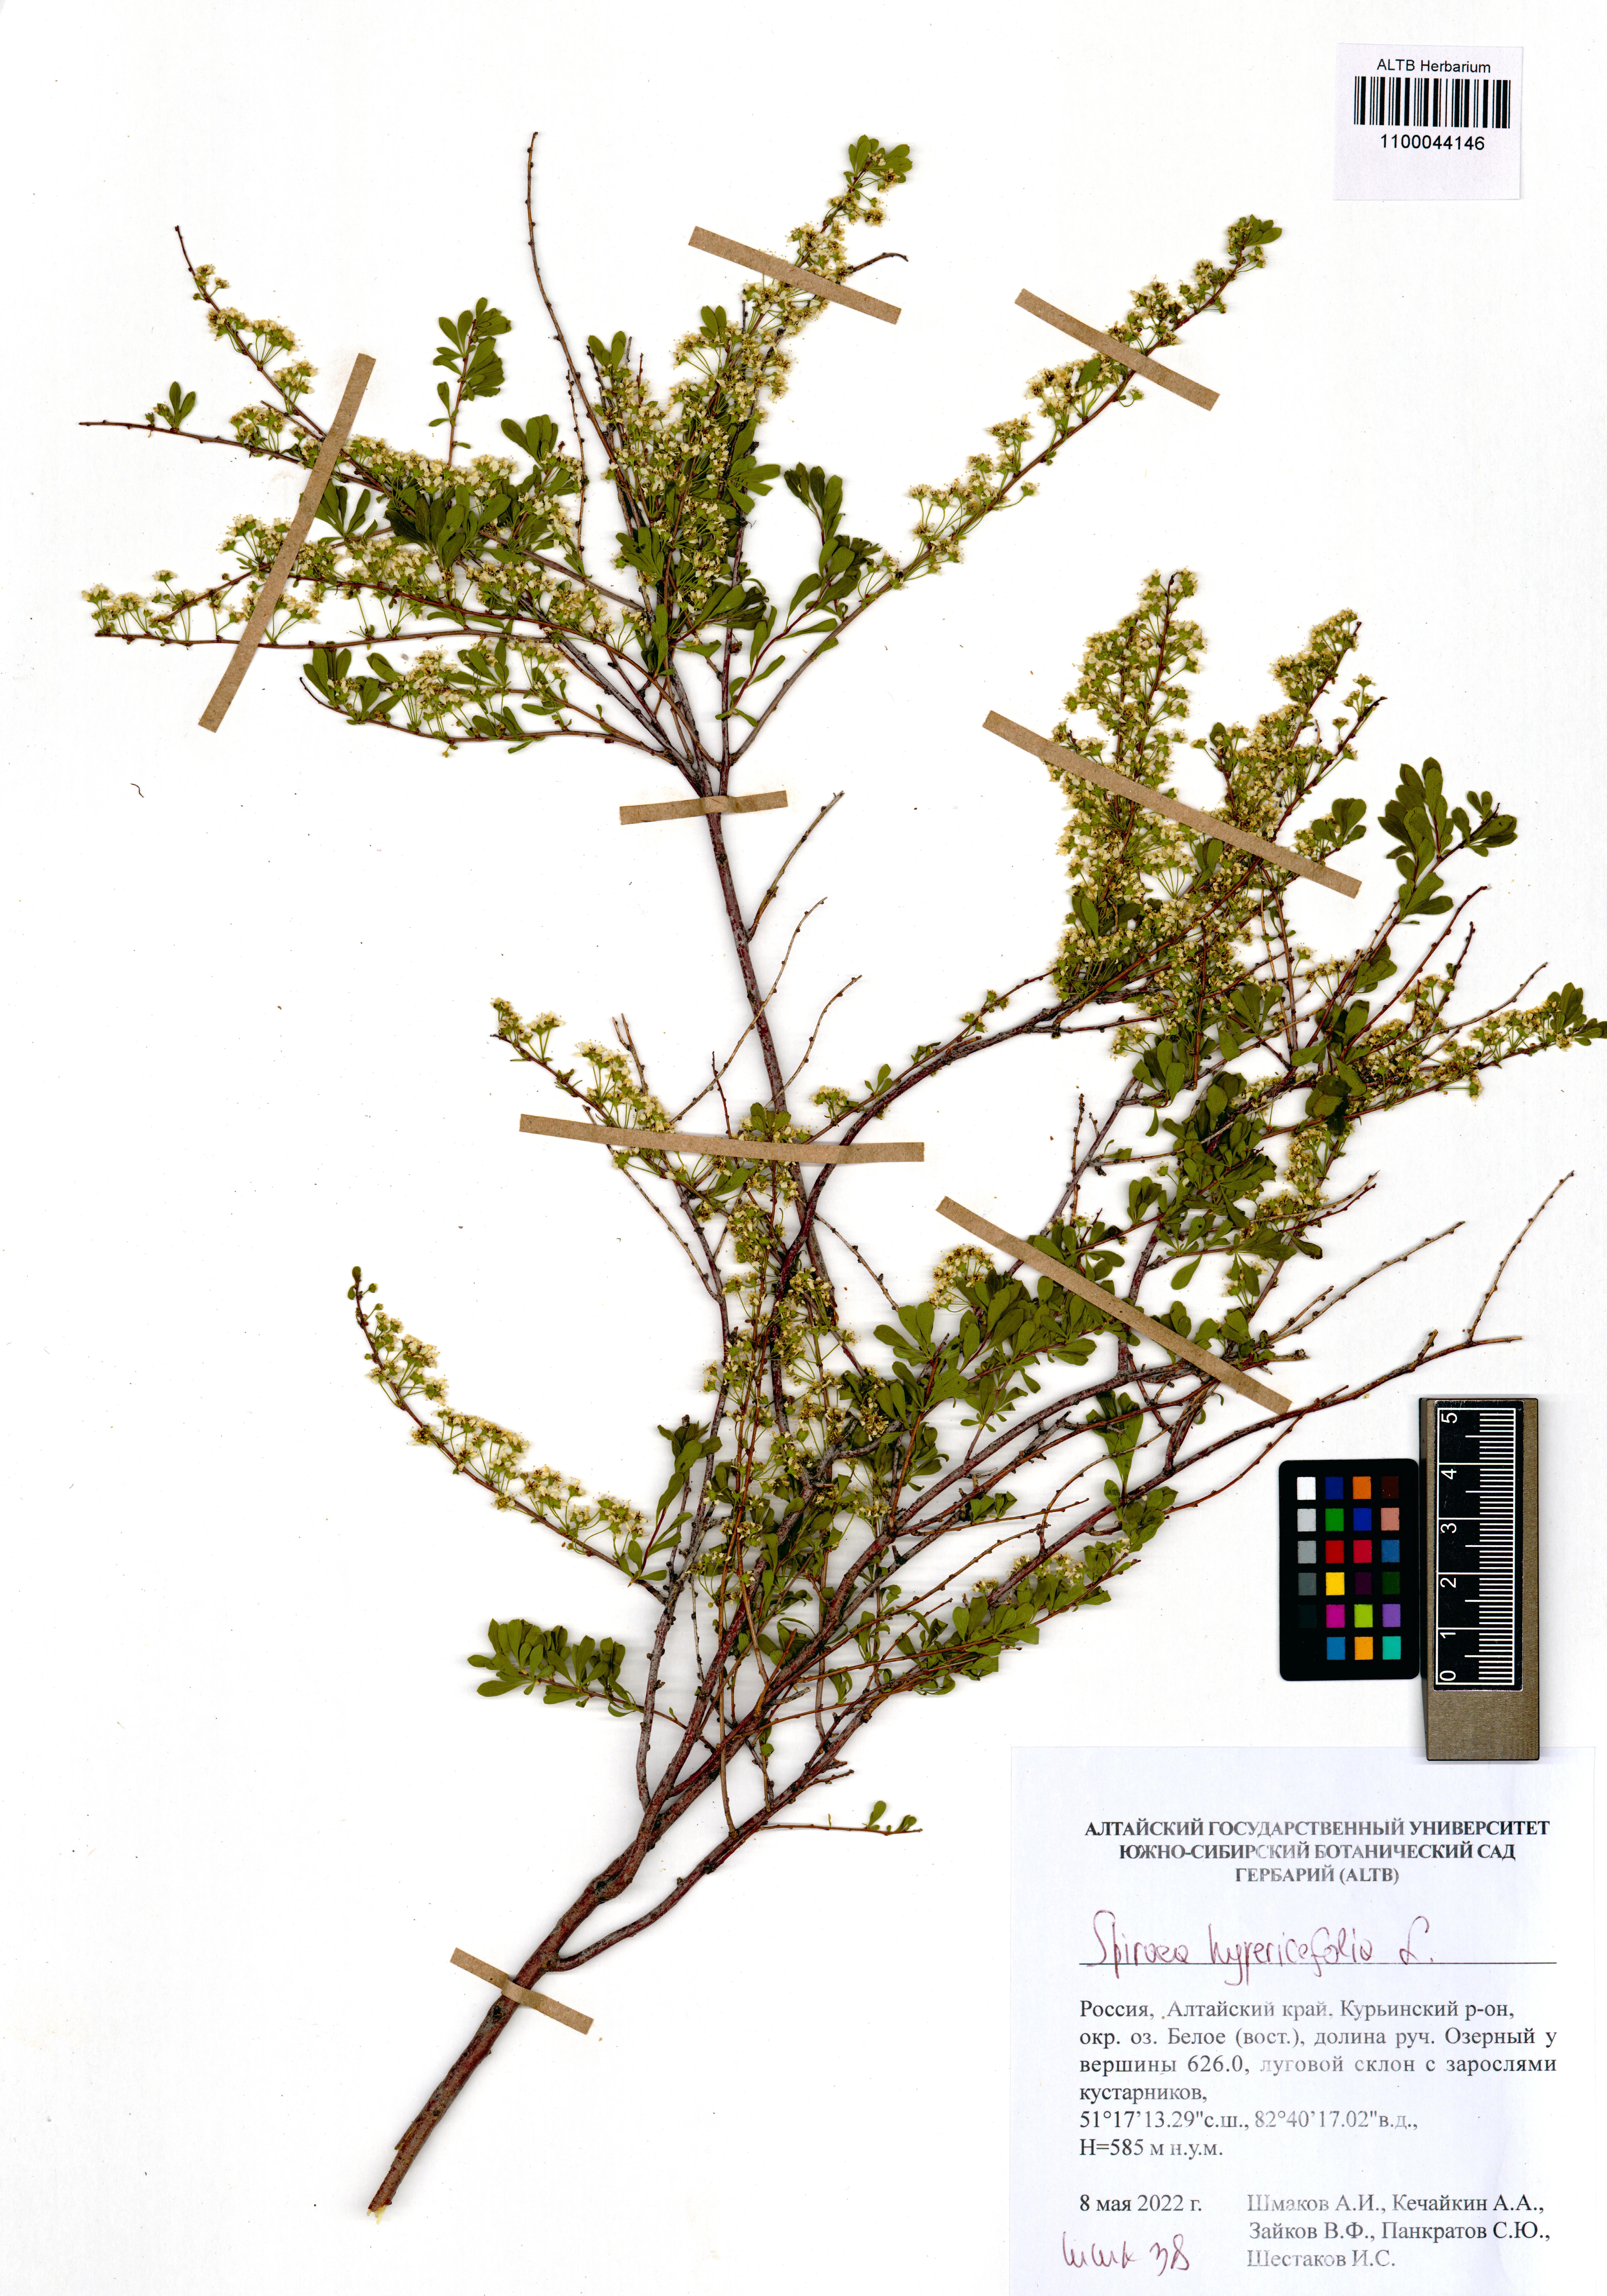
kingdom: Plantae
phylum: Tracheophyta
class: Magnoliopsida
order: Rosales
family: Rosaceae
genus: Spiraea
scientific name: Spiraea hypericifolia
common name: Iberian spirea
